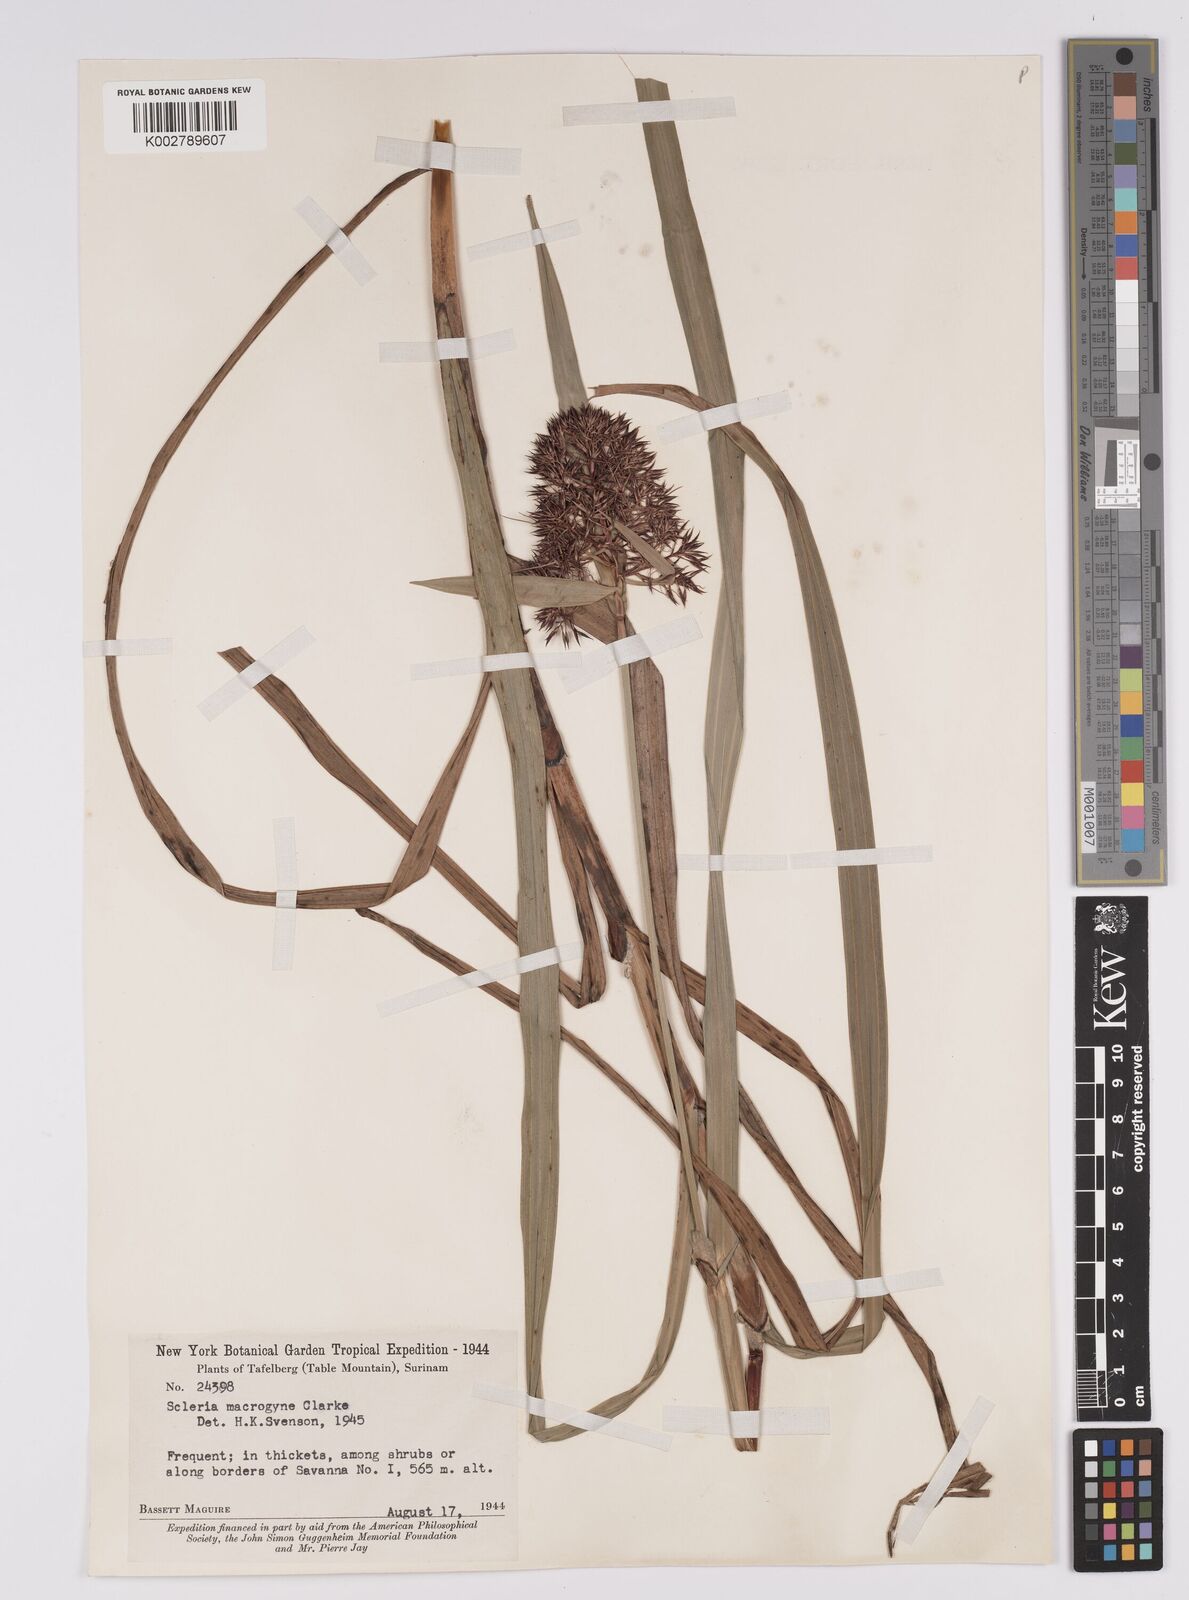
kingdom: Plantae
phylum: Tracheophyta
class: Liliopsida
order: Poales
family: Cyperaceae
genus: Scleria
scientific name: Scleria macrogyne
